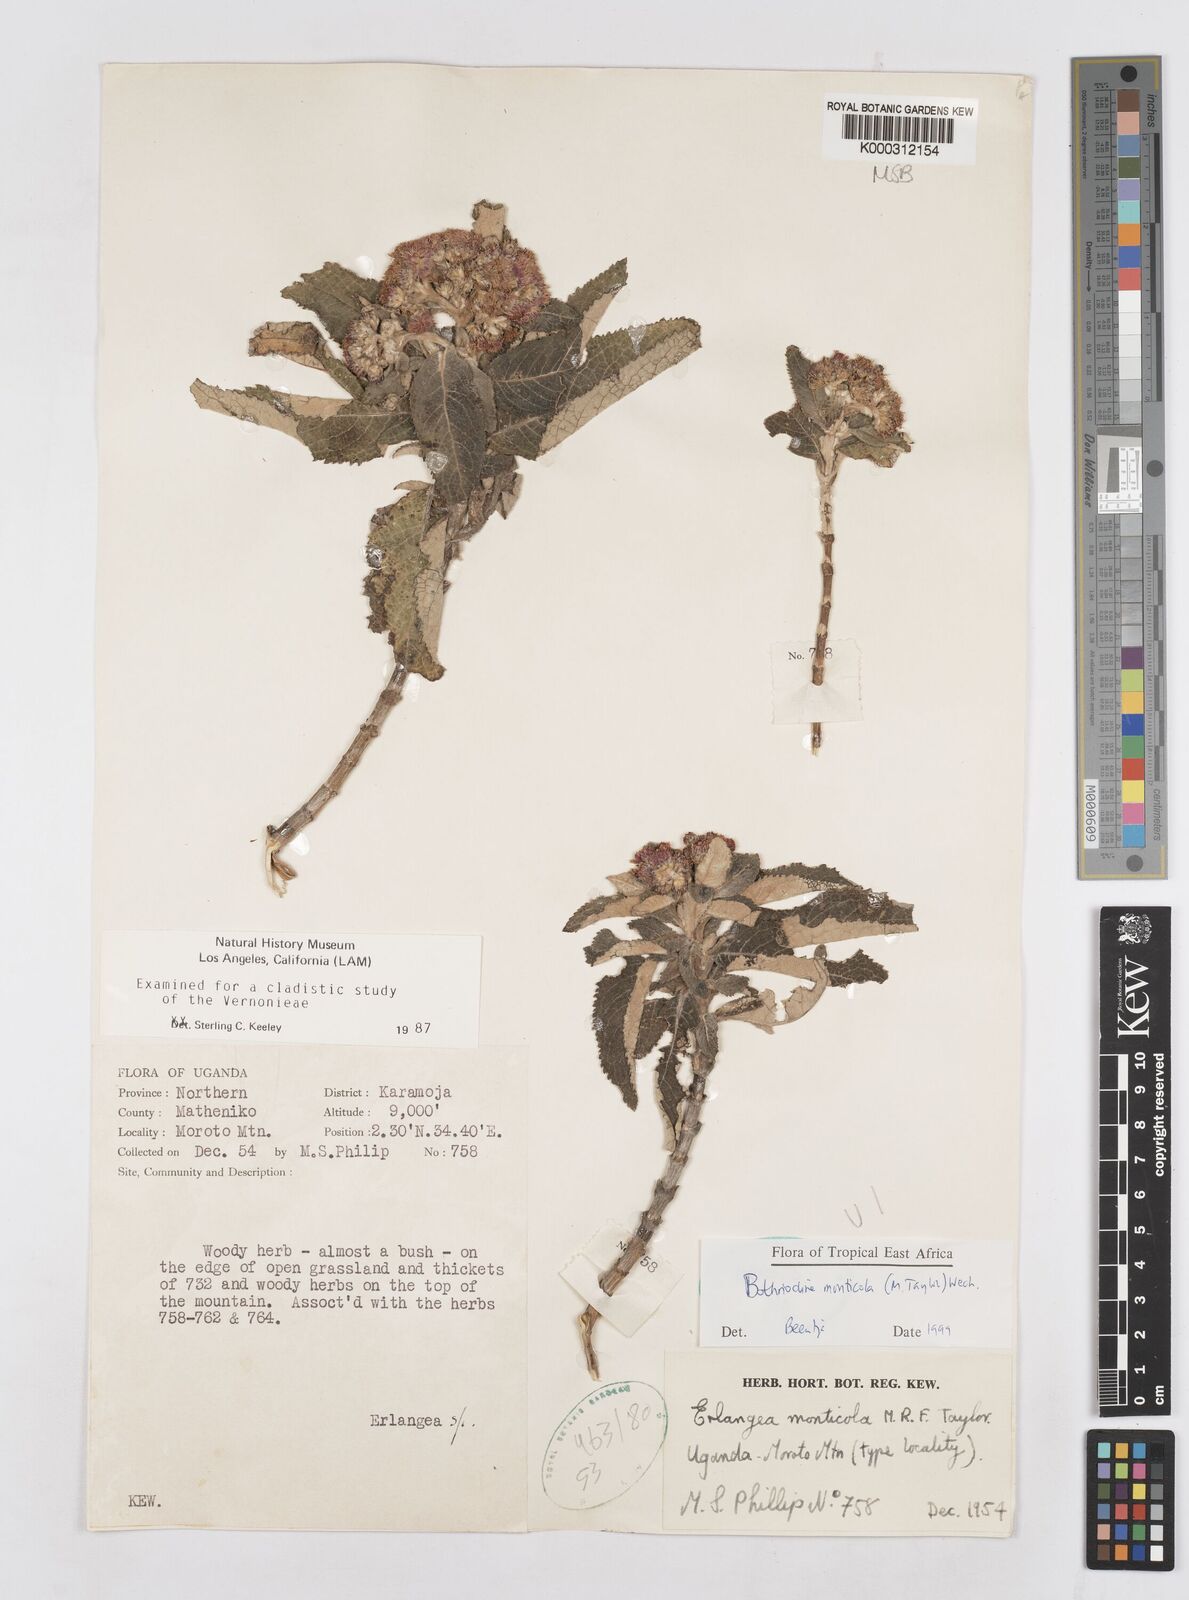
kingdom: Plantae
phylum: Tracheophyta
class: Magnoliopsida
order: Asterales
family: Asteraceae
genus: Bothriocline
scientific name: Bothriocline monticola
